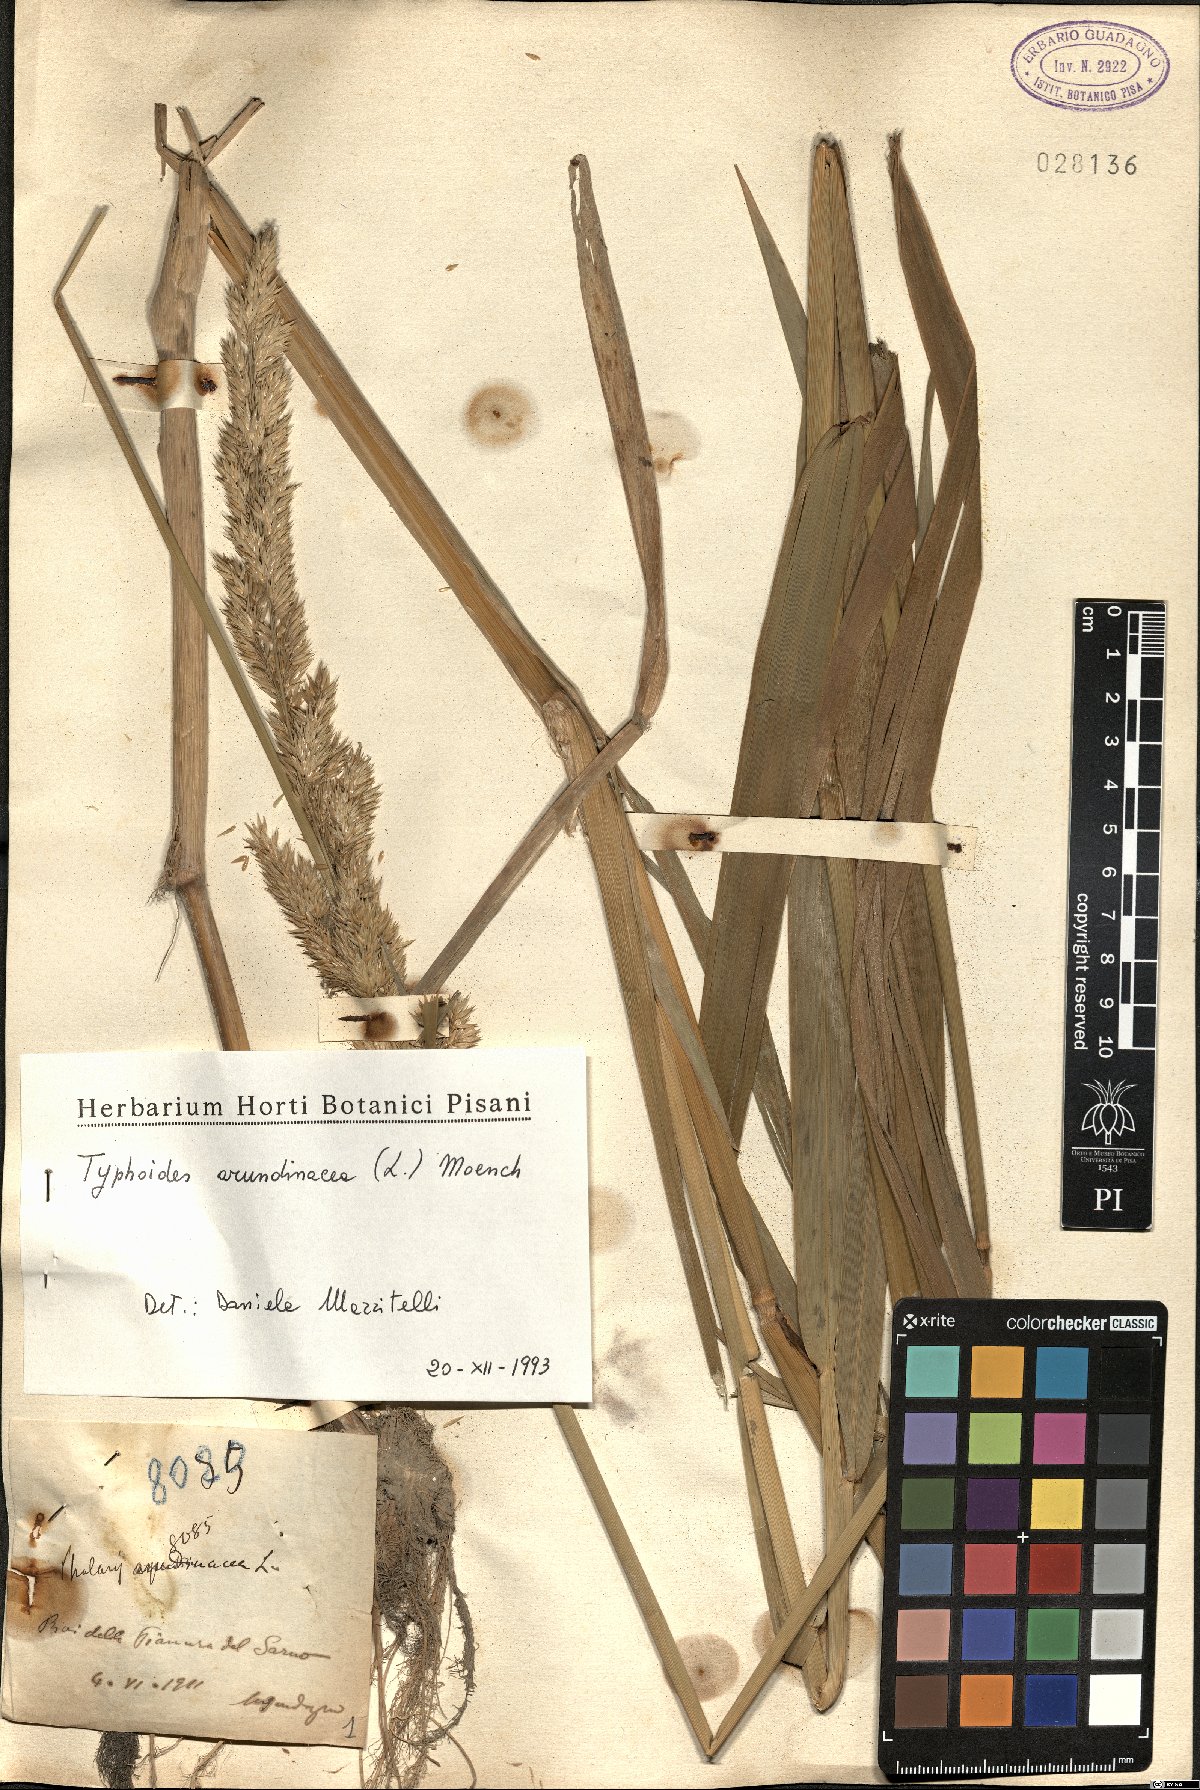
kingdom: Plantae
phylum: Tracheophyta
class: Liliopsida
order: Poales
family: Poaceae
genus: Phalaris
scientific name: Phalaris arundinacea
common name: Reed canary-grass
